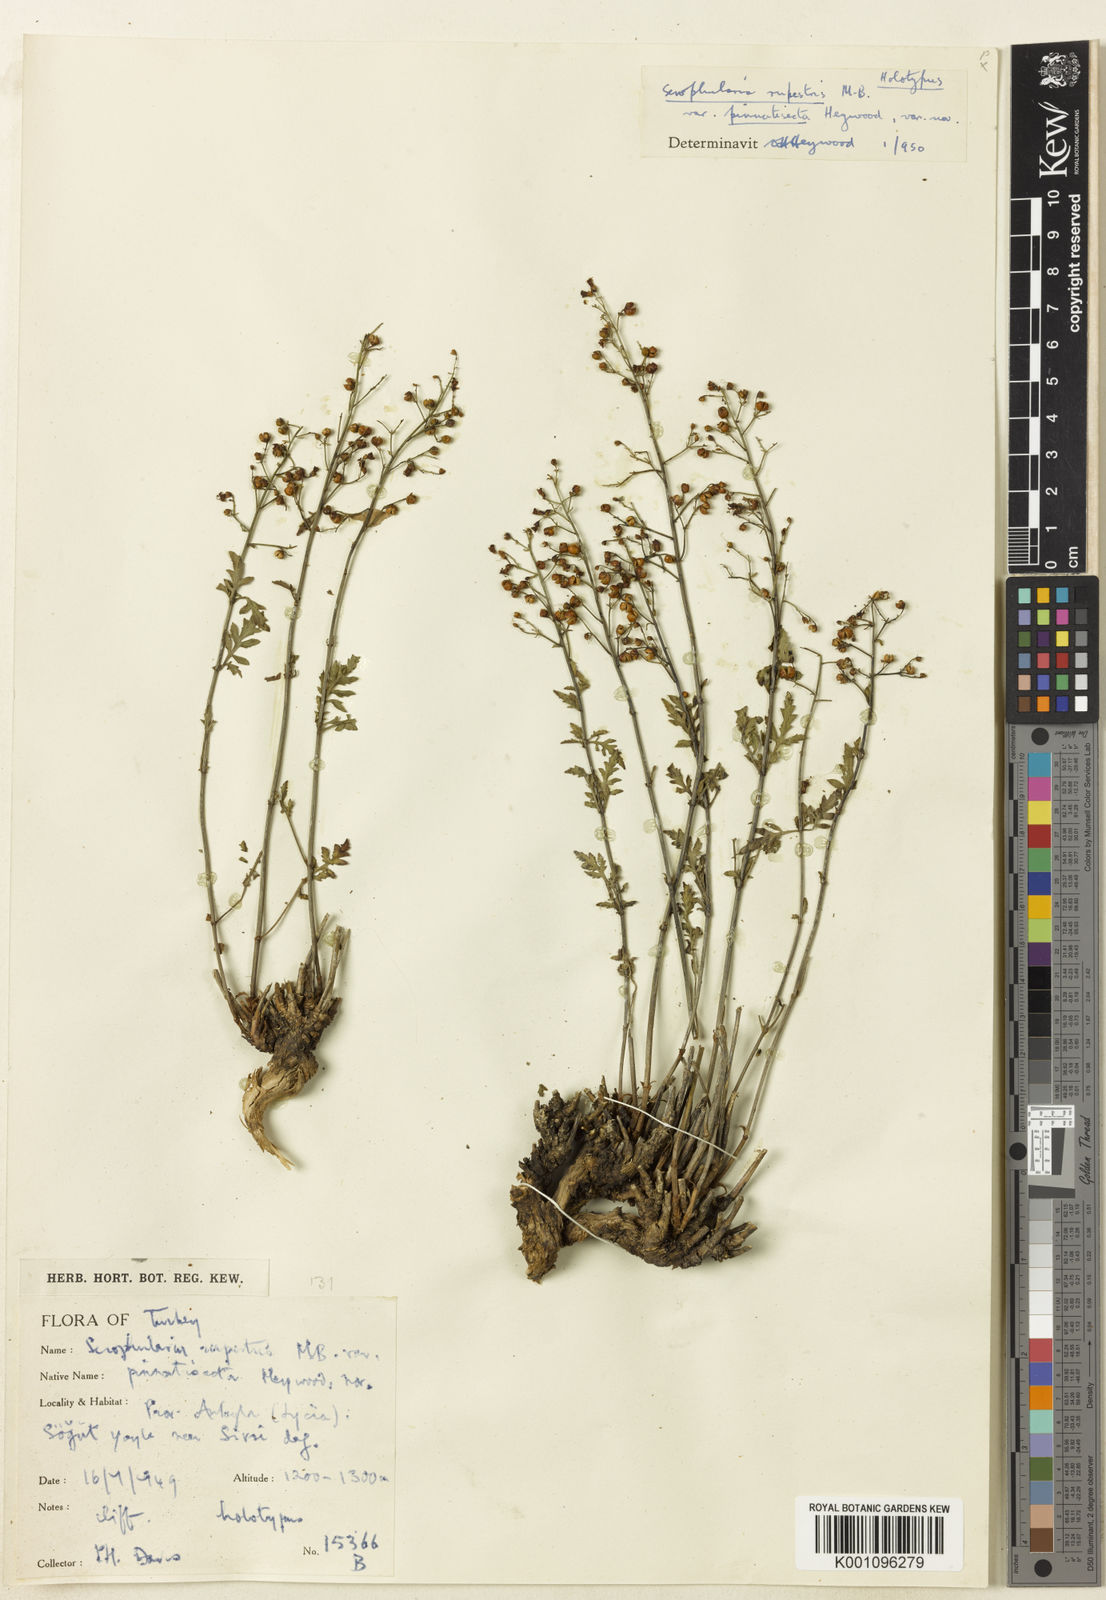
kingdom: Plantae
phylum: Tracheophyta
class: Magnoliopsida
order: Lamiales
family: Scrophulariaceae
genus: Scrophularia
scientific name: Scrophularia laciniata
